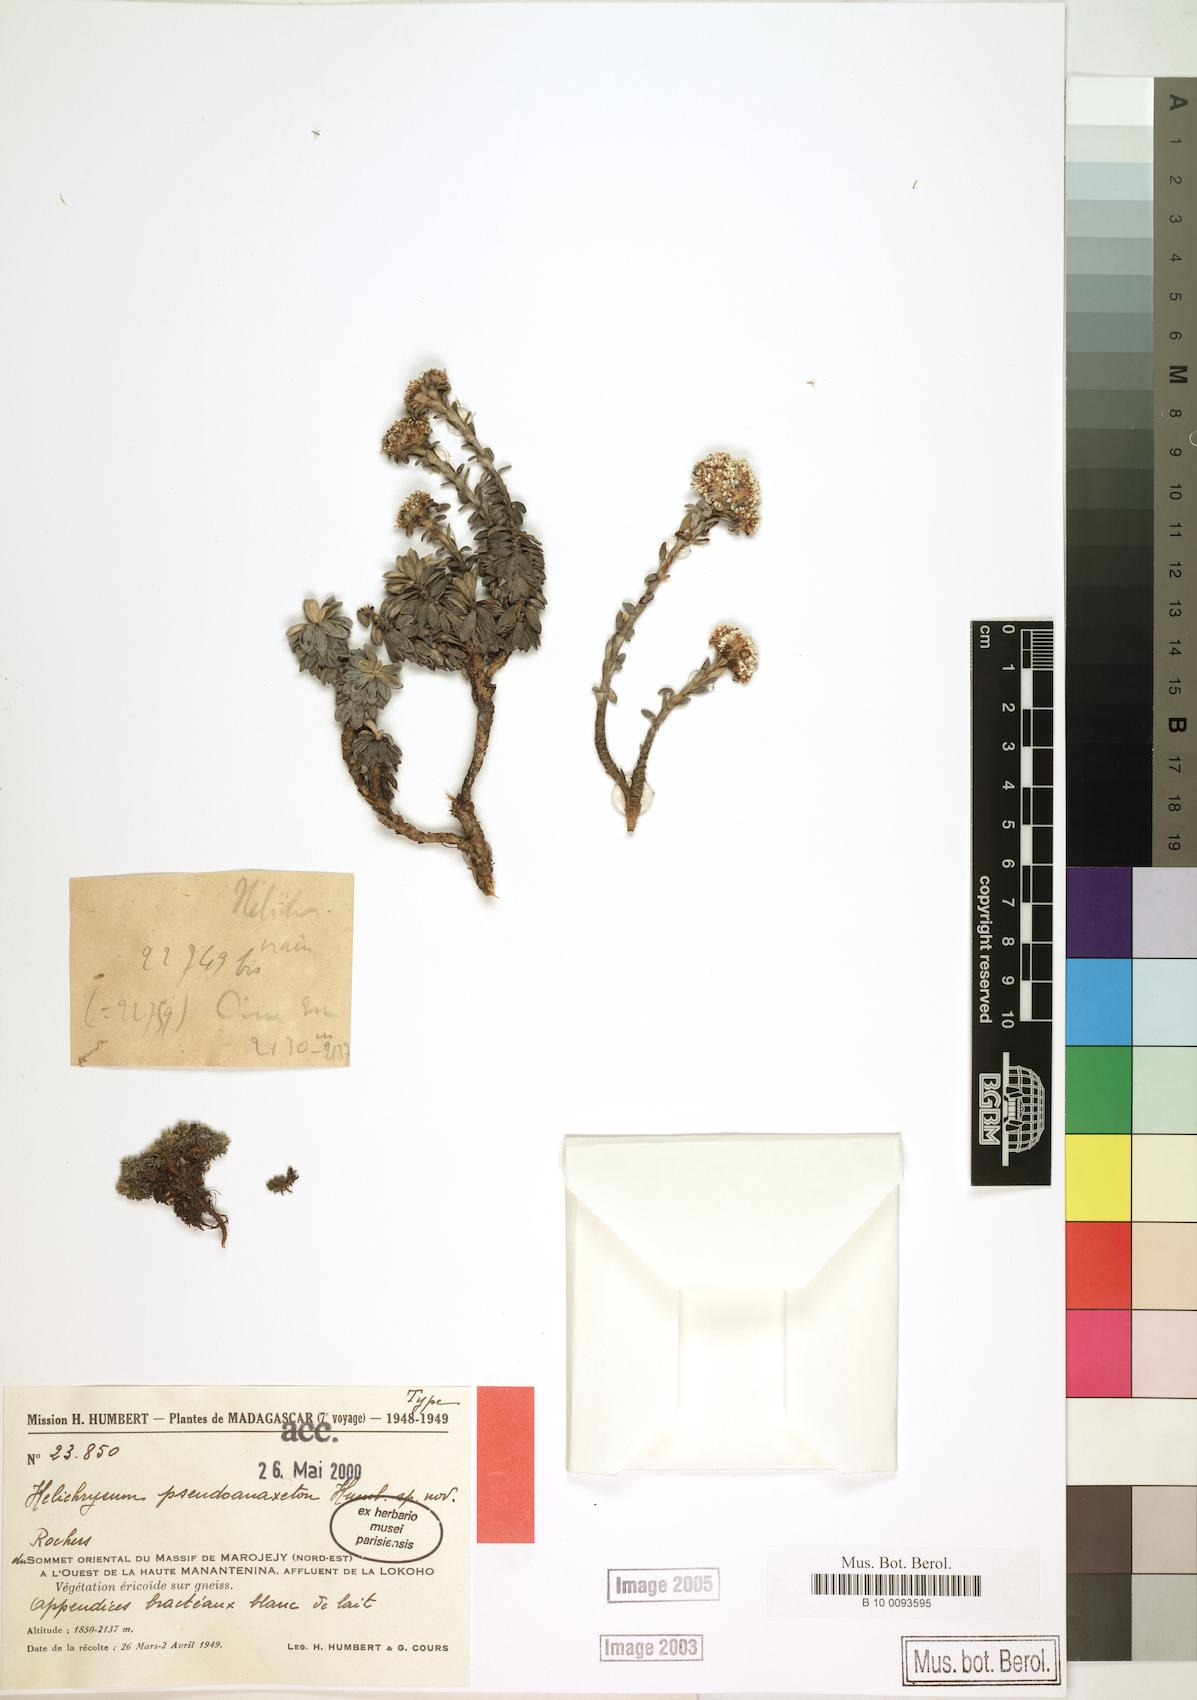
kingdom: Plantae
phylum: Tracheophyta
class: Magnoliopsida
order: Asterales
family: Asteraceae
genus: Helichrysum
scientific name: Helichrysum pseudoanaxeton
